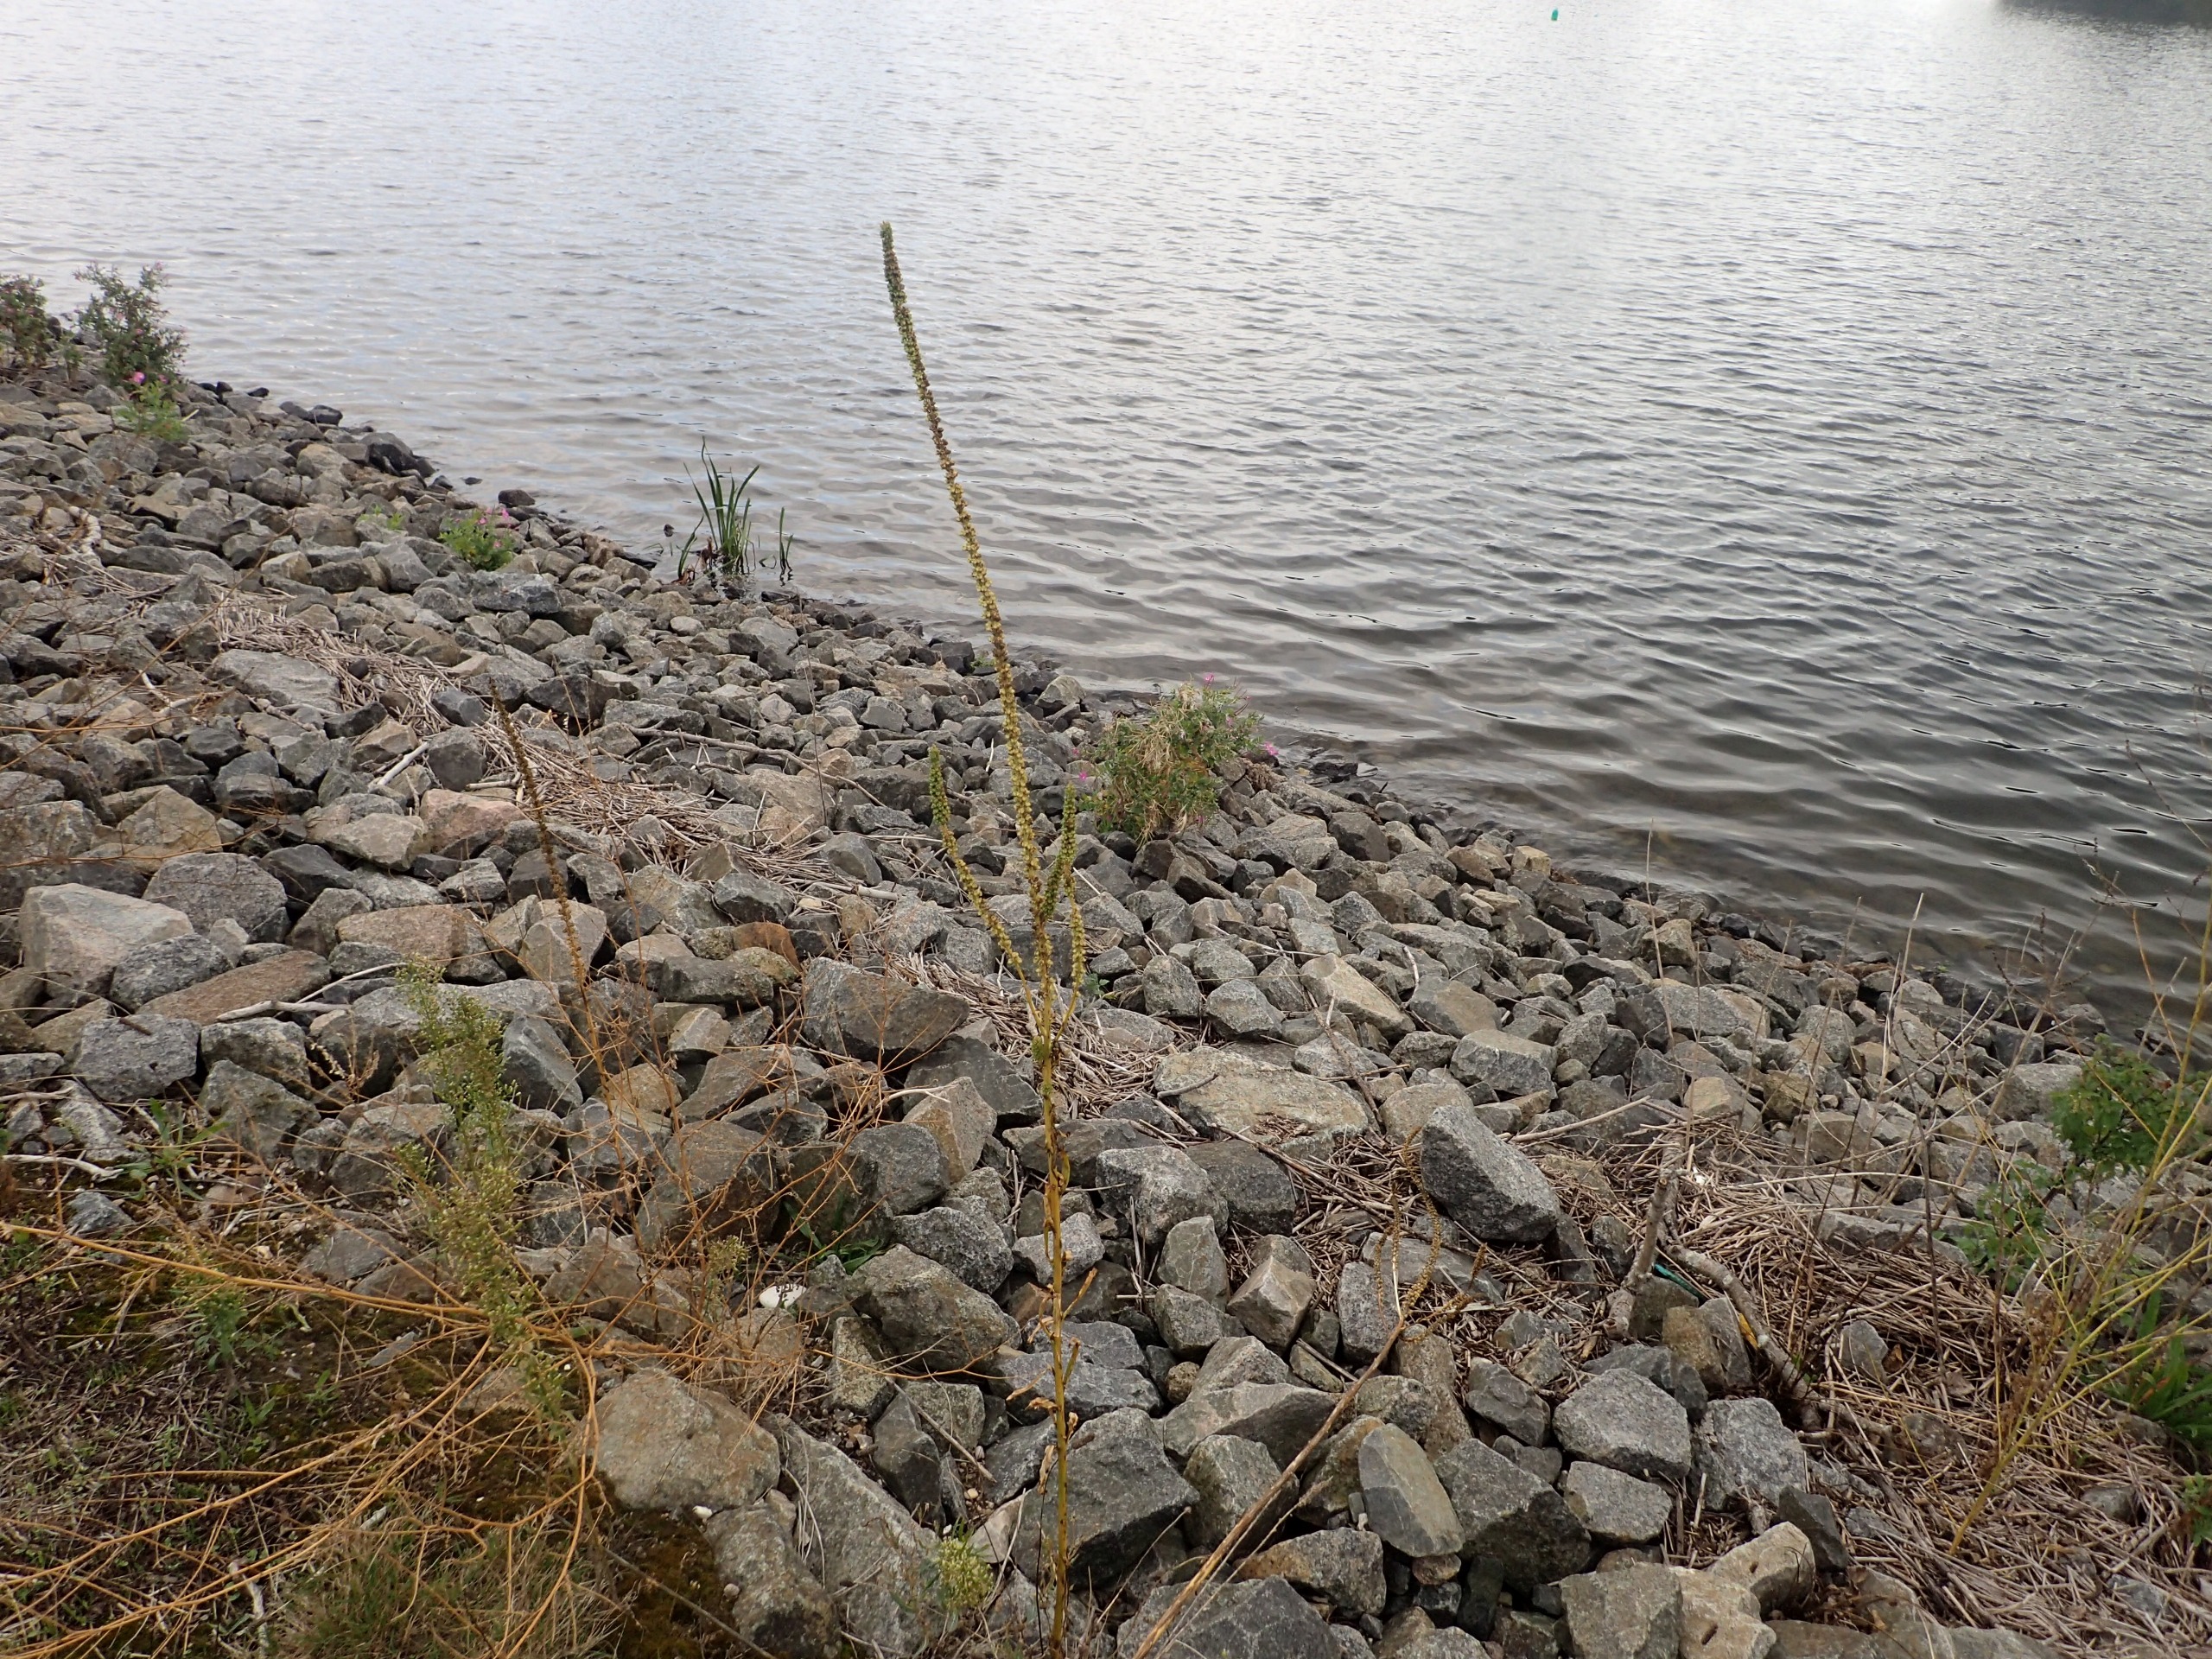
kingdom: Plantae
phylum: Tracheophyta
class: Magnoliopsida
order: Brassicales
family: Resedaceae
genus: Reseda
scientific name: Reseda luteola
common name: Farve-reseda
